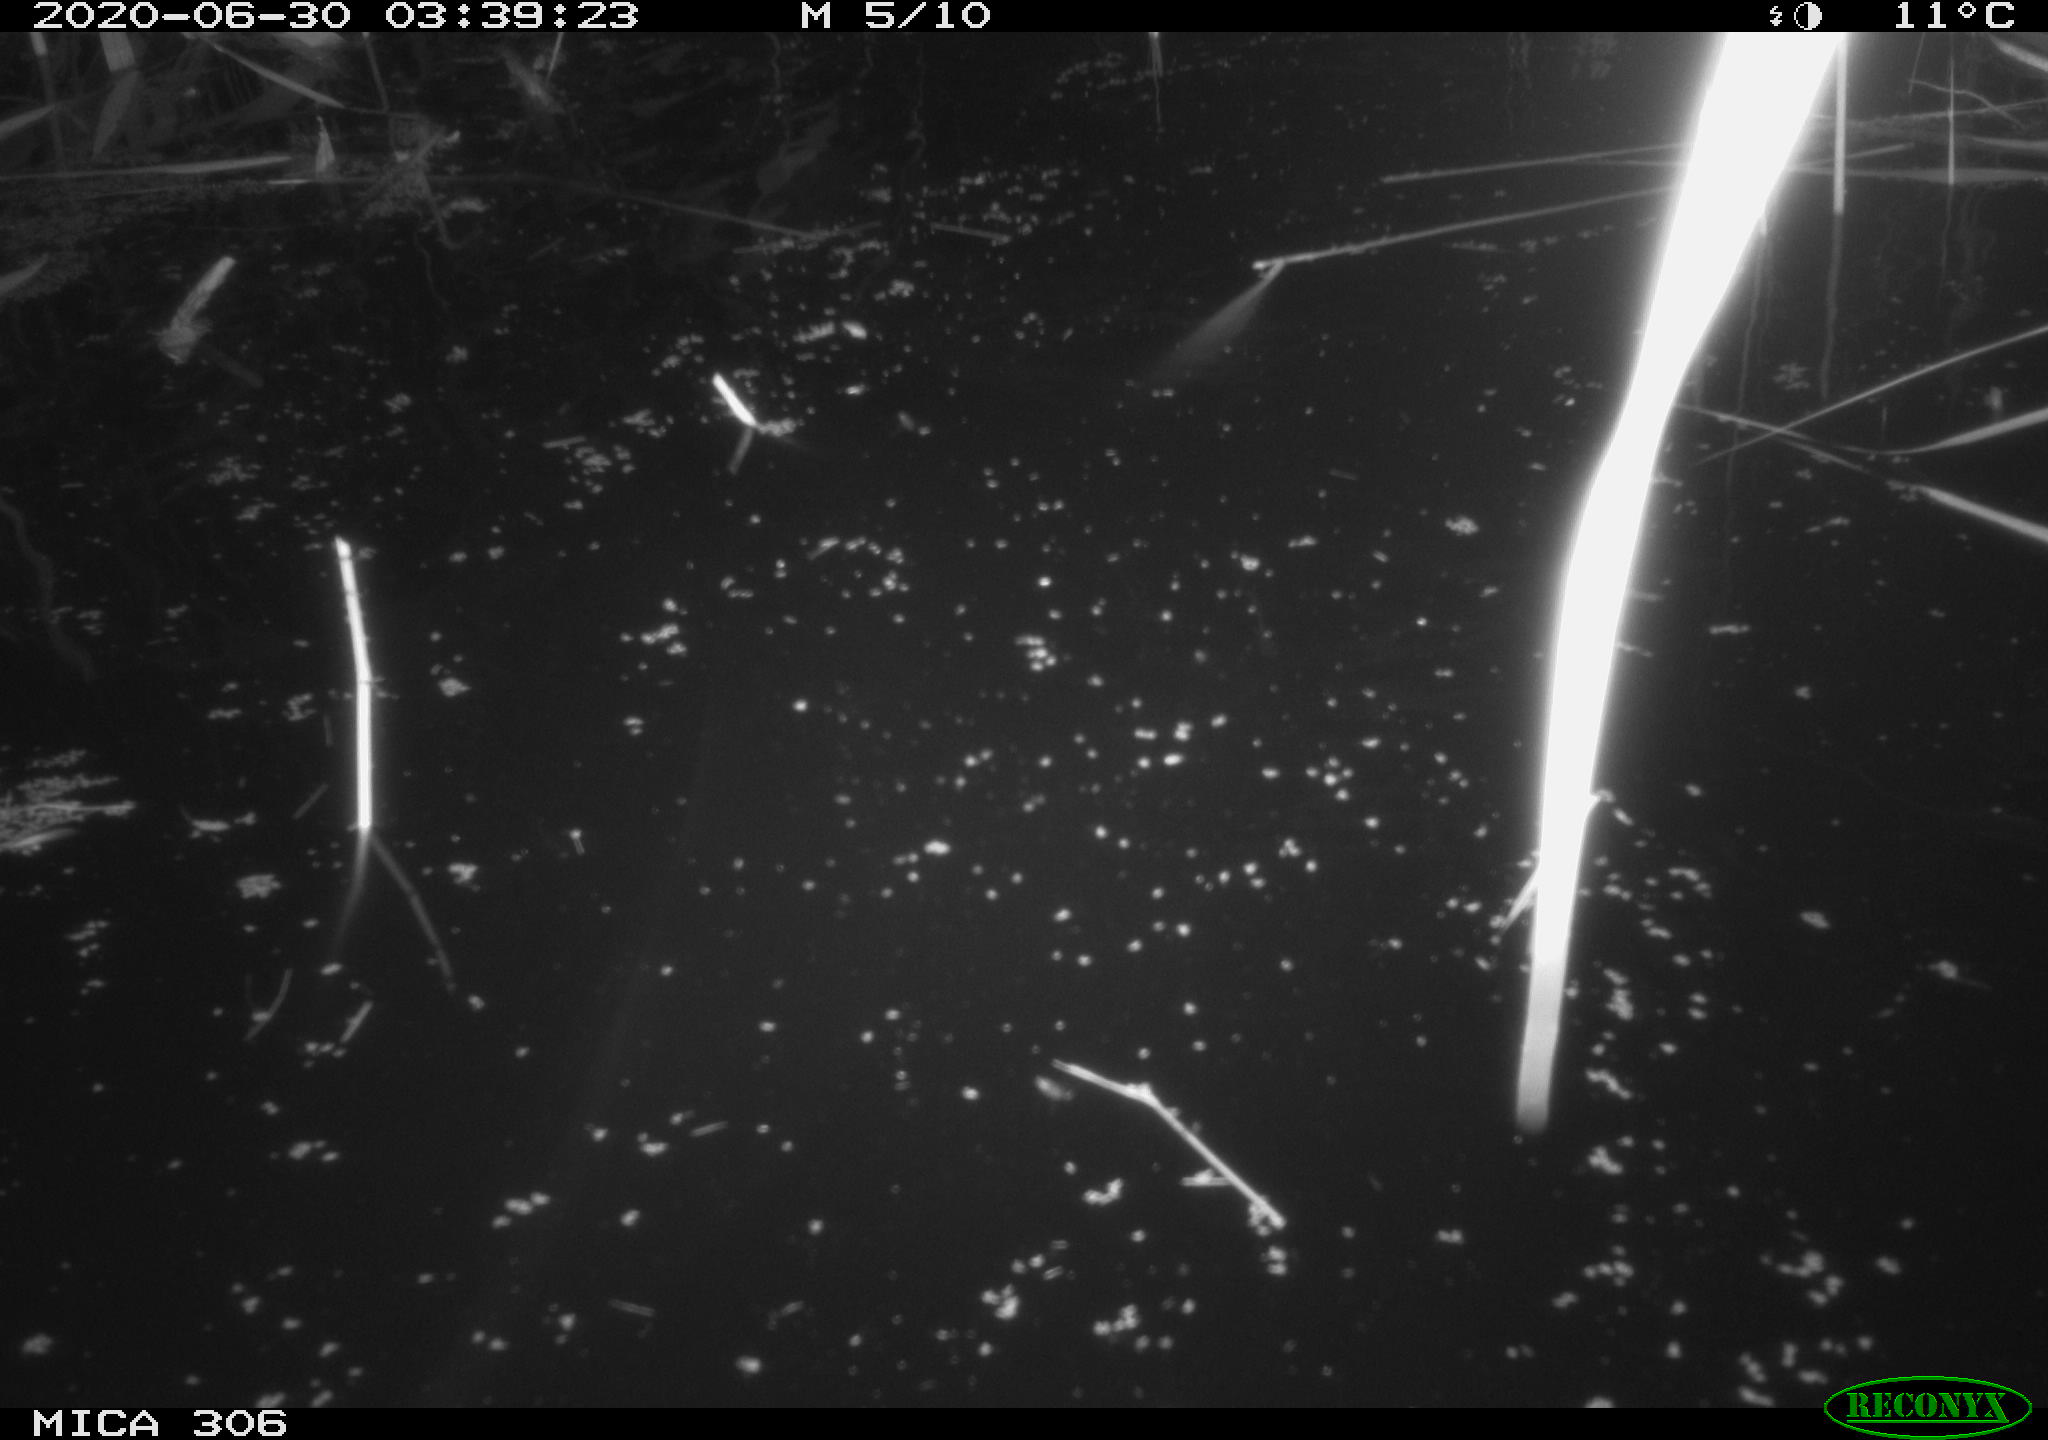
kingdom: Animalia
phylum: Chordata
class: Mammalia
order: Rodentia
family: Cricetidae
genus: Ondatra
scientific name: Ondatra zibethicus
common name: Muskrat
